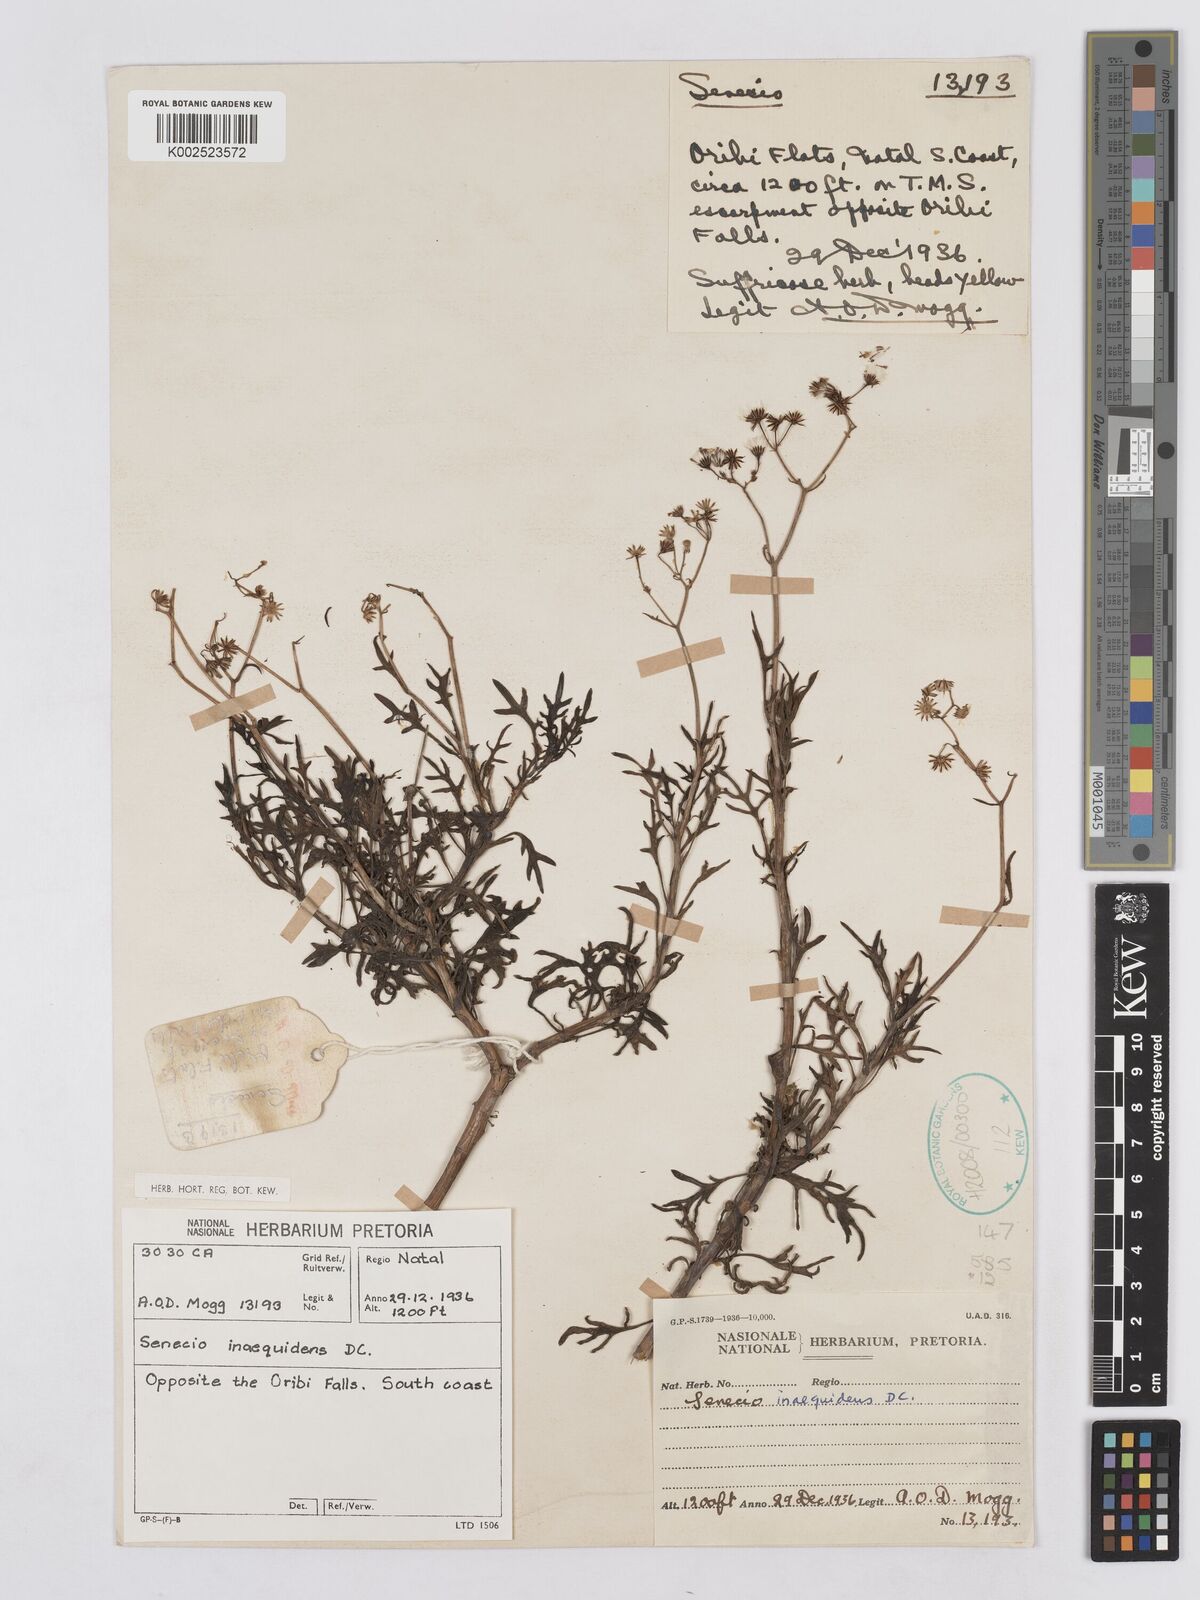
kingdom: Plantae
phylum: Tracheophyta
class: Magnoliopsida
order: Asterales
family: Asteraceae
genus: Senecio
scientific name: Senecio inaequidens
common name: Narrow-leaved ragwort
